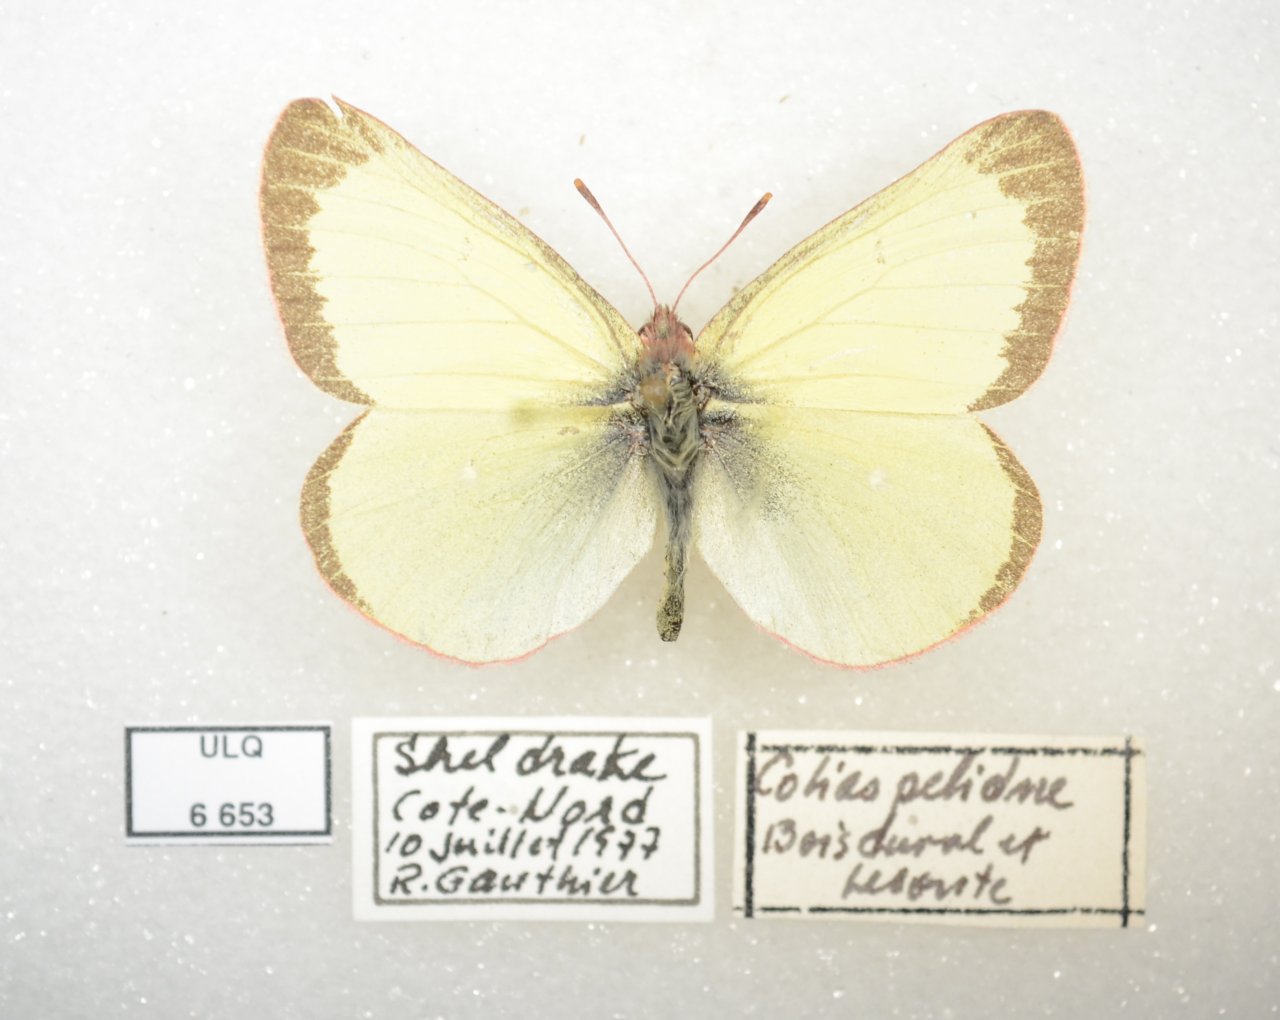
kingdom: Animalia
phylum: Arthropoda
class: Insecta
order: Lepidoptera
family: Pieridae
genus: Colias
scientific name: Colias pelidne
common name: Pelidne Sulphur
